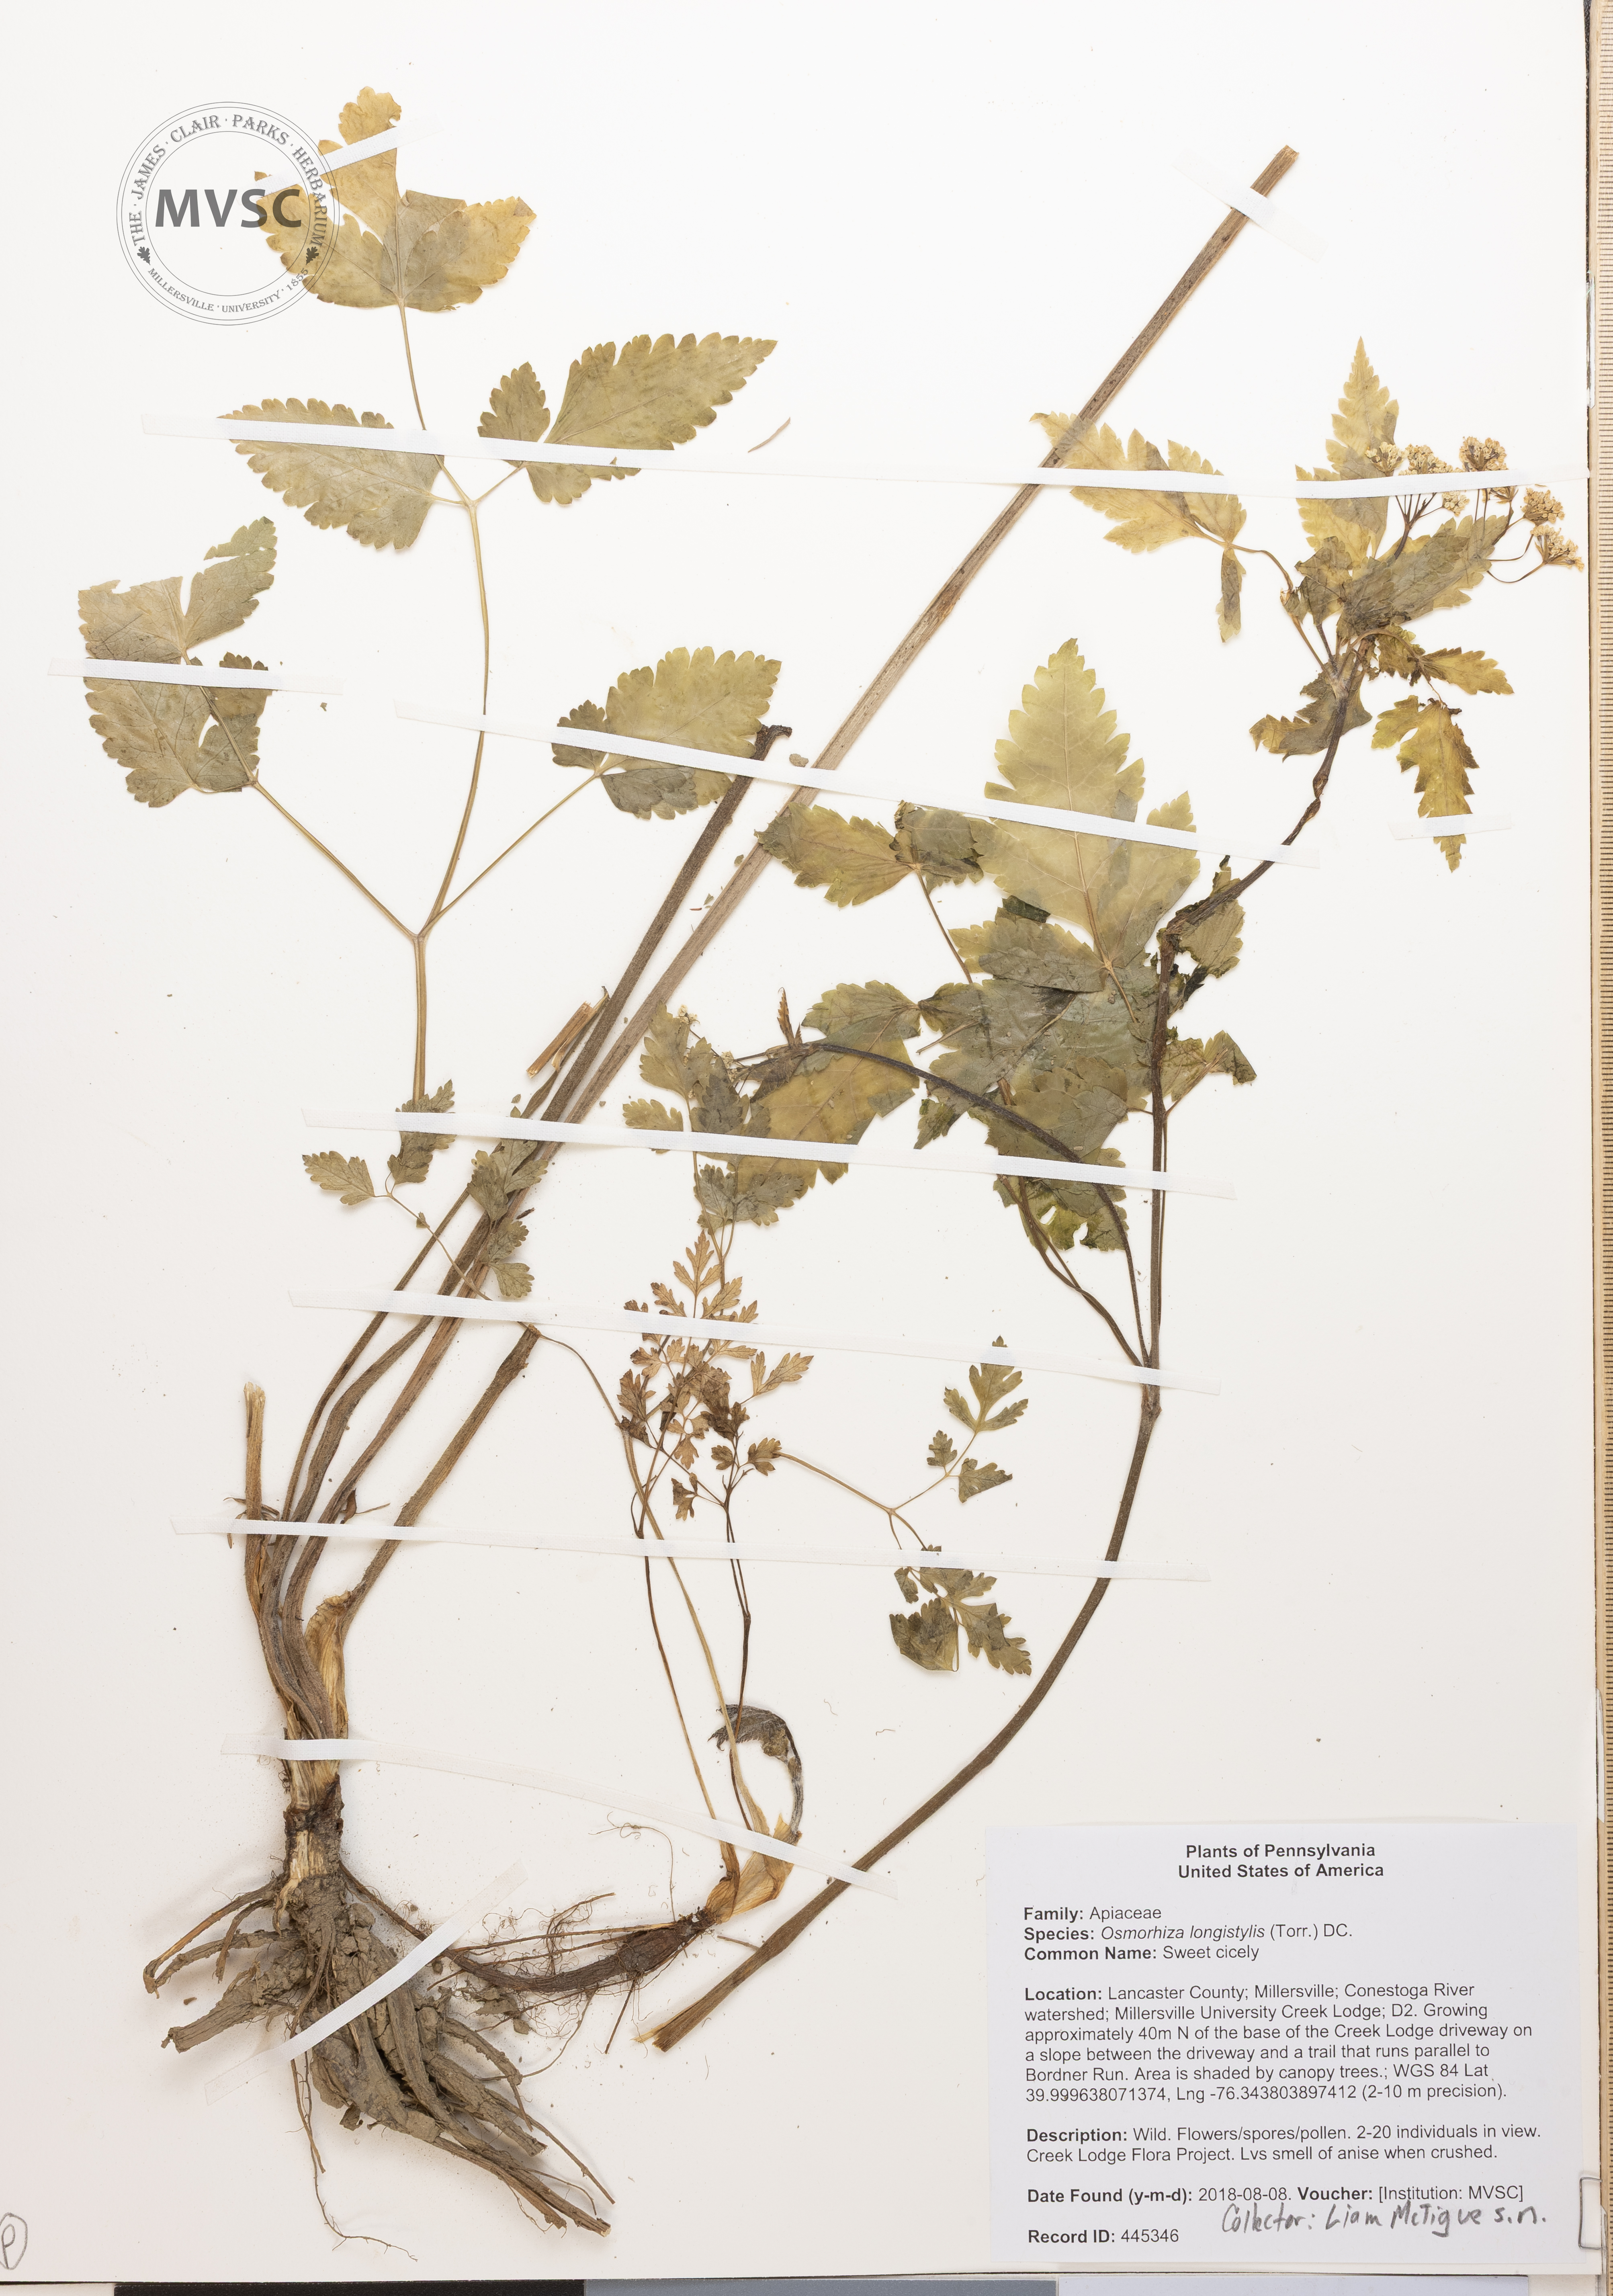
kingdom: Plantae
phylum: Tracheophyta
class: Magnoliopsida
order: Apiales
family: Apiaceae
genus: Osmorhiza
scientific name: Osmorhiza longistylis
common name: Sweet cicely
